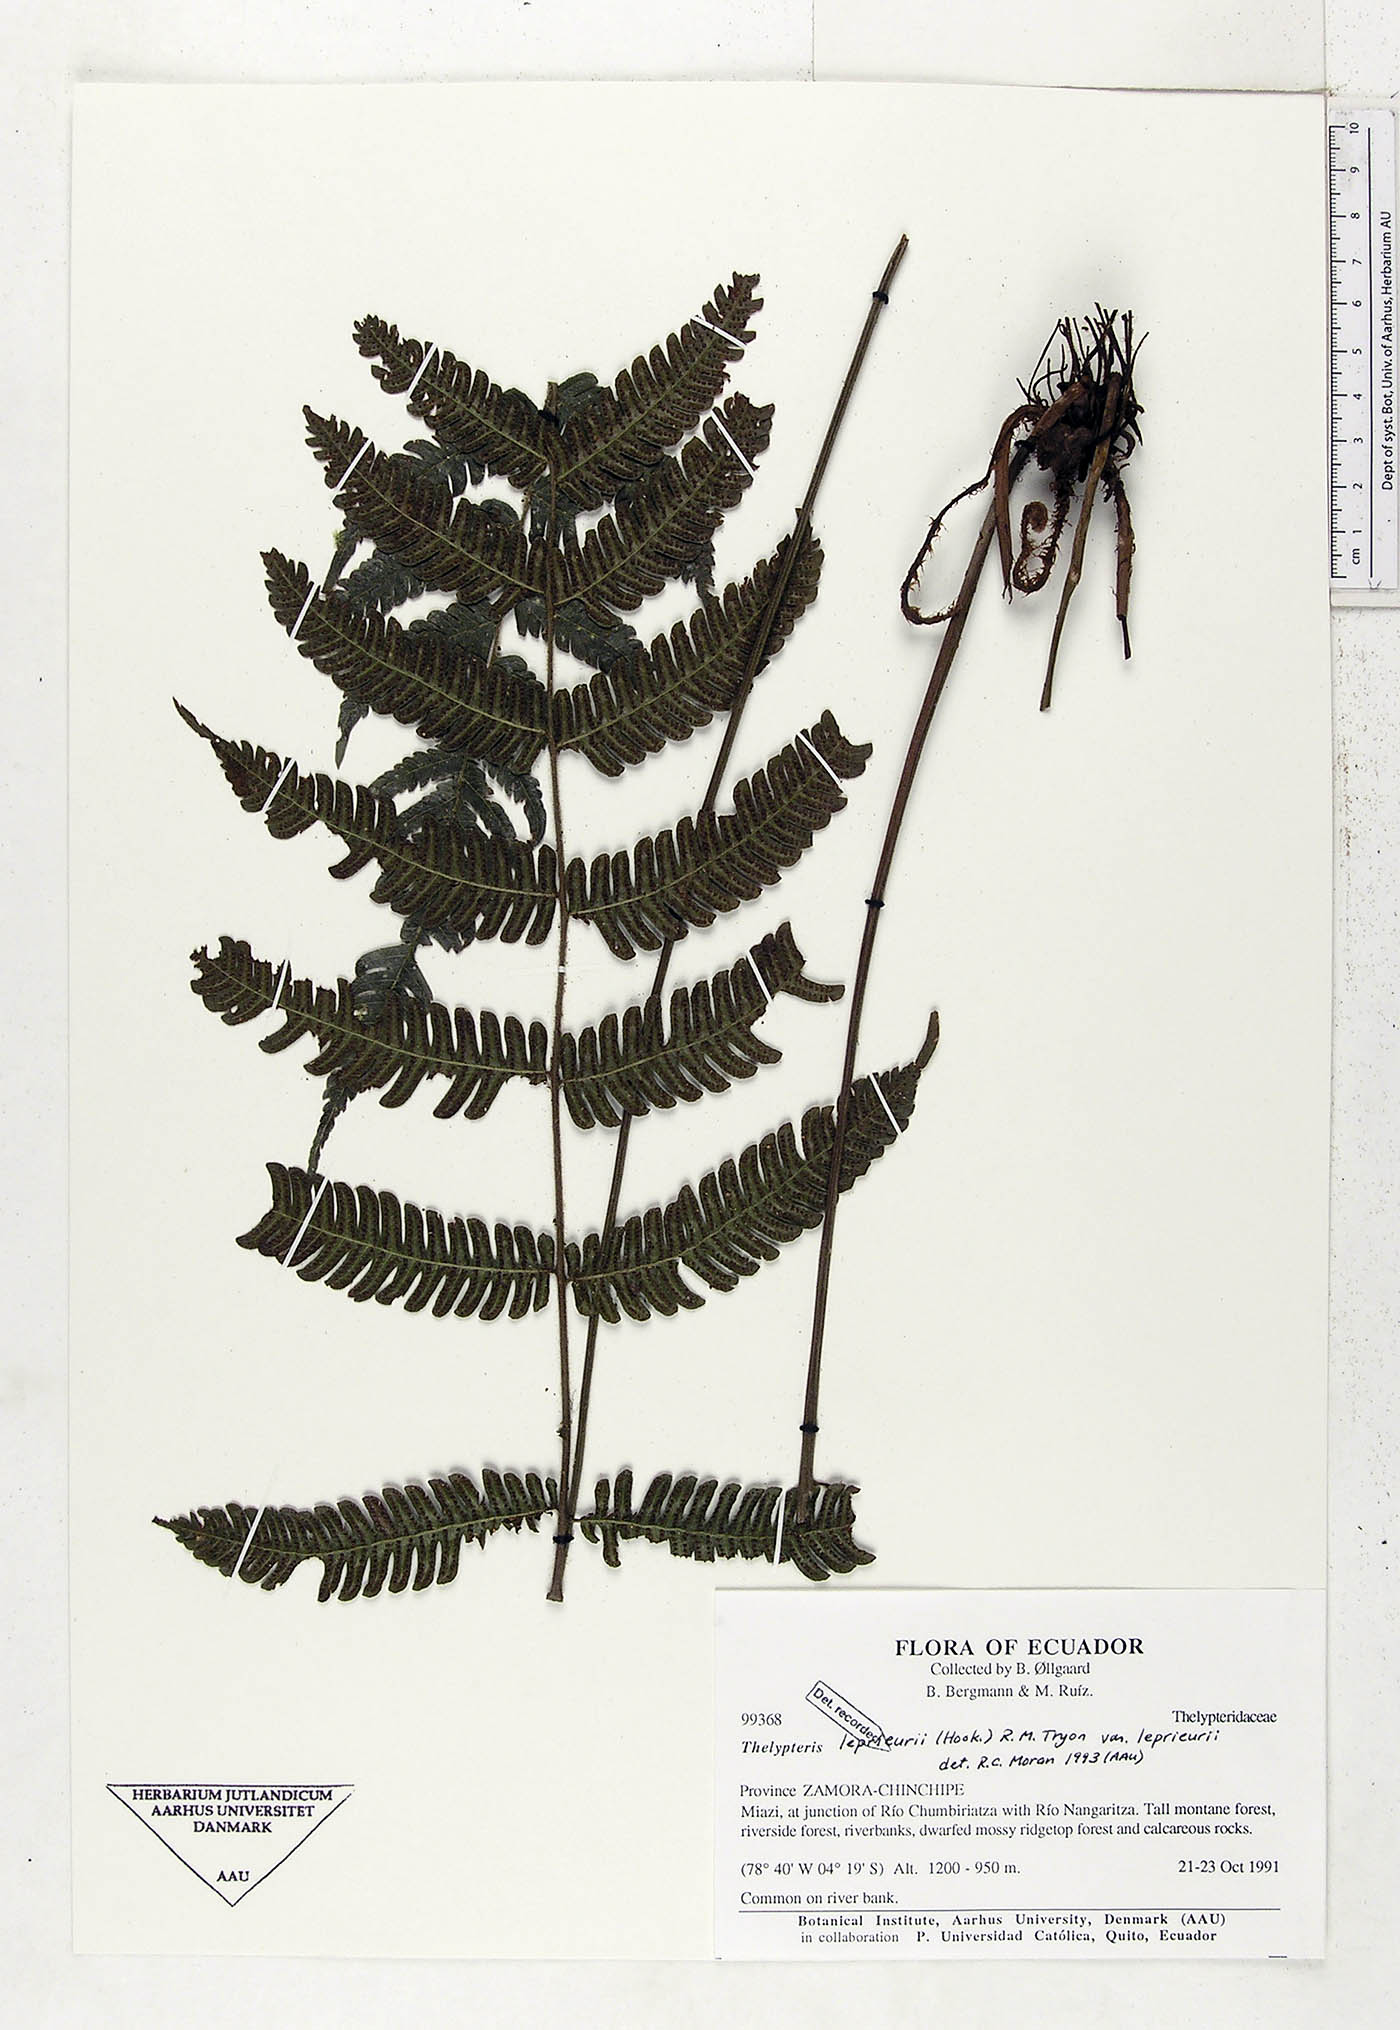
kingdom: Plantae
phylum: Tracheophyta
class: Polypodiopsida
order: Polypodiales
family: Thelypteridaceae
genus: Steiropteris
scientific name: Steiropteris leprieurii
